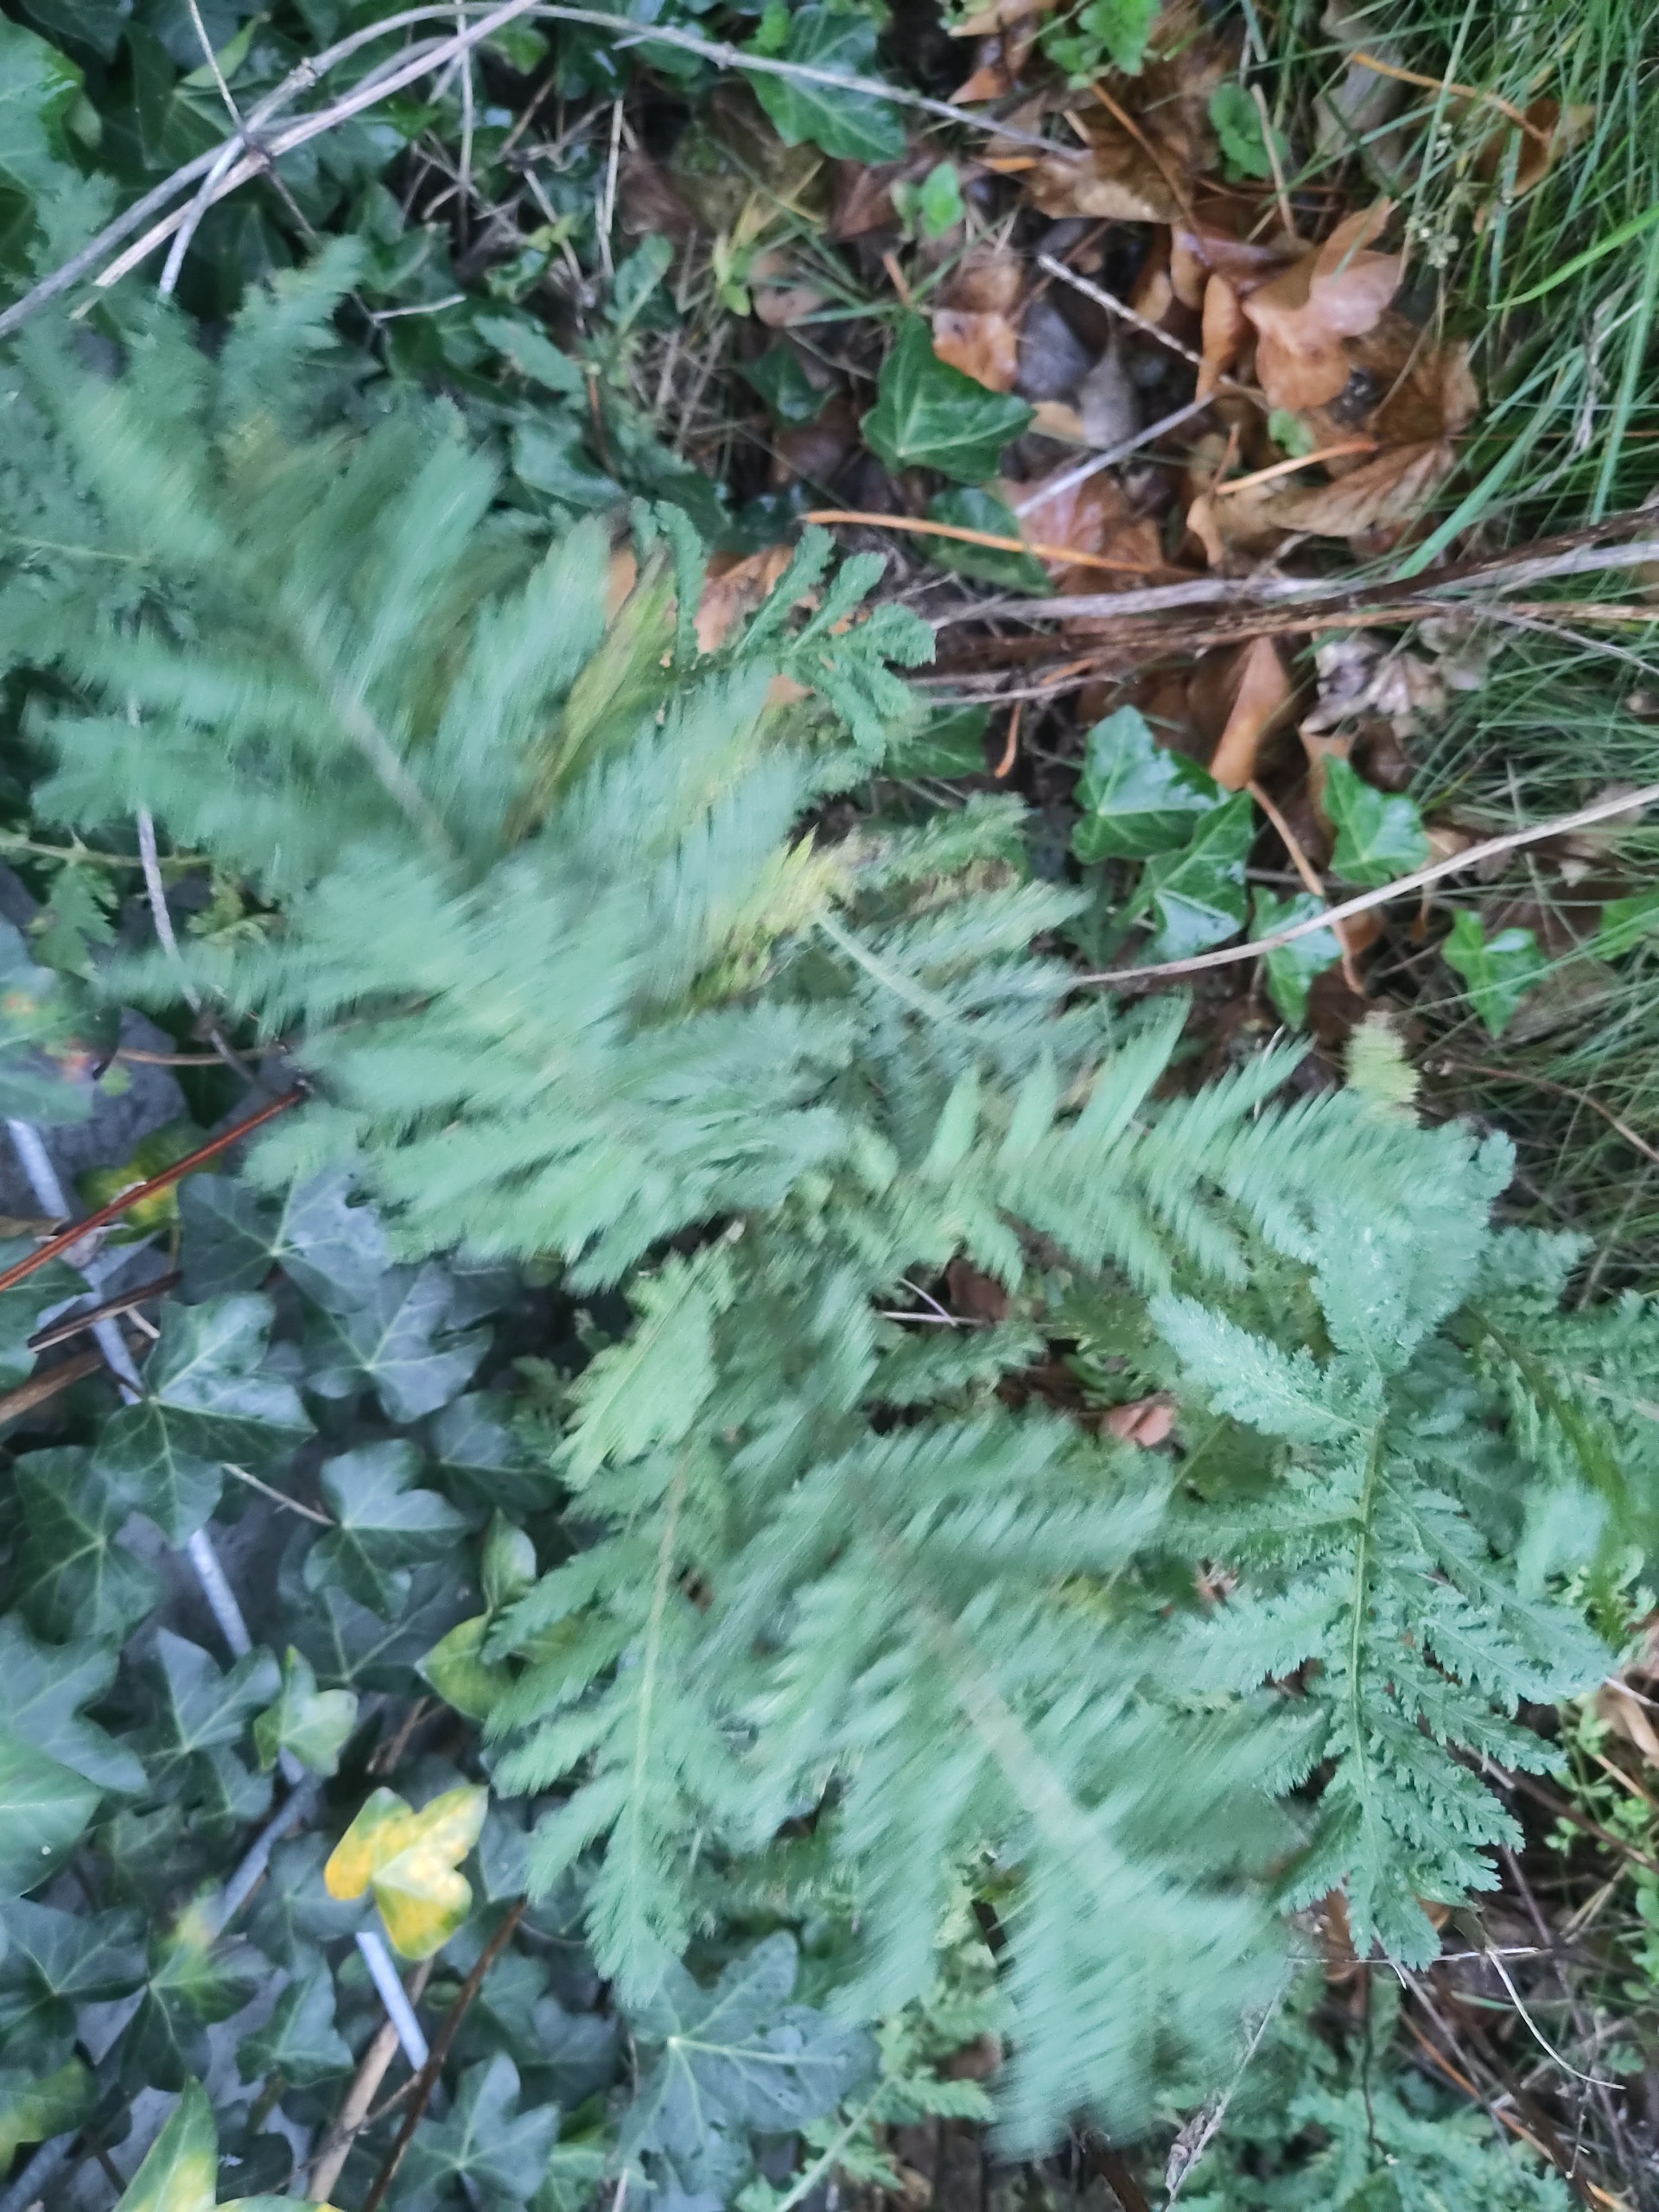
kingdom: Plantae
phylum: Tracheophyta
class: Magnoliopsida
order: Asterales
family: Asteraceae
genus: Tanacetum
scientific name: Tanacetum vulgare
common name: Rejnfan
